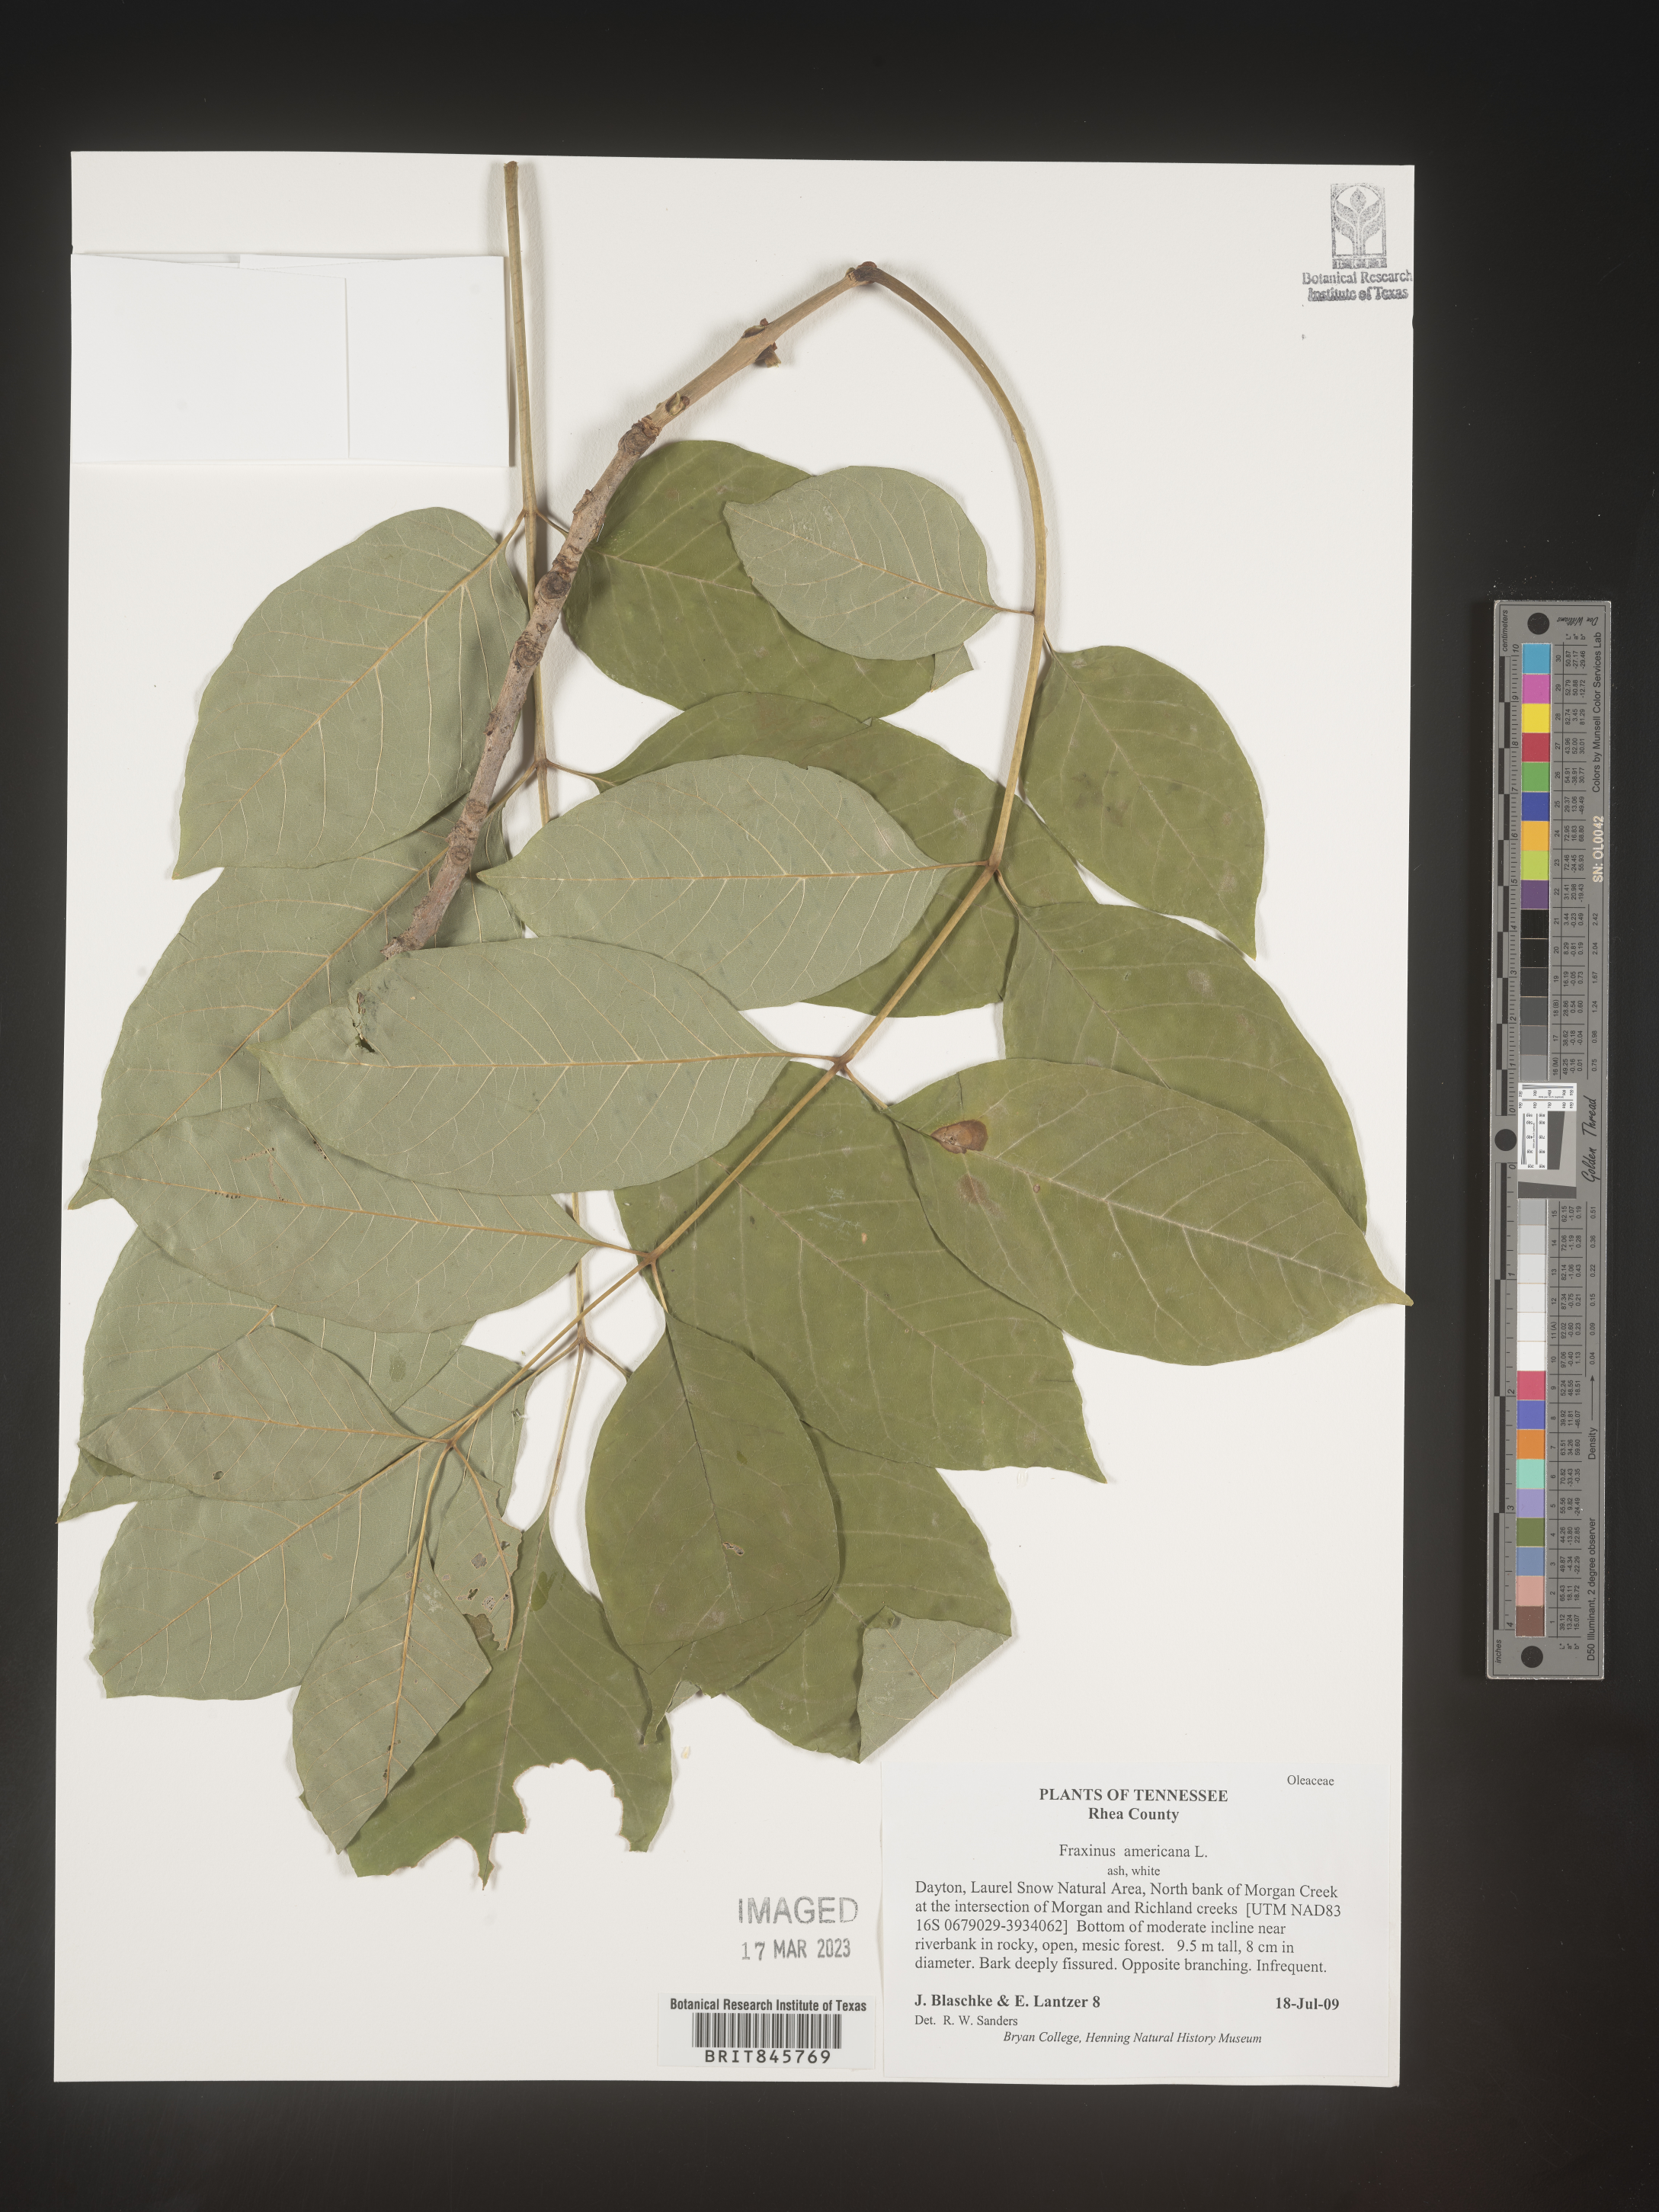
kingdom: Plantae
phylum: Tracheophyta
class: Magnoliopsida
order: Lamiales
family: Oleaceae
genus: Fraxinus
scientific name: Fraxinus americana
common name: White ash
